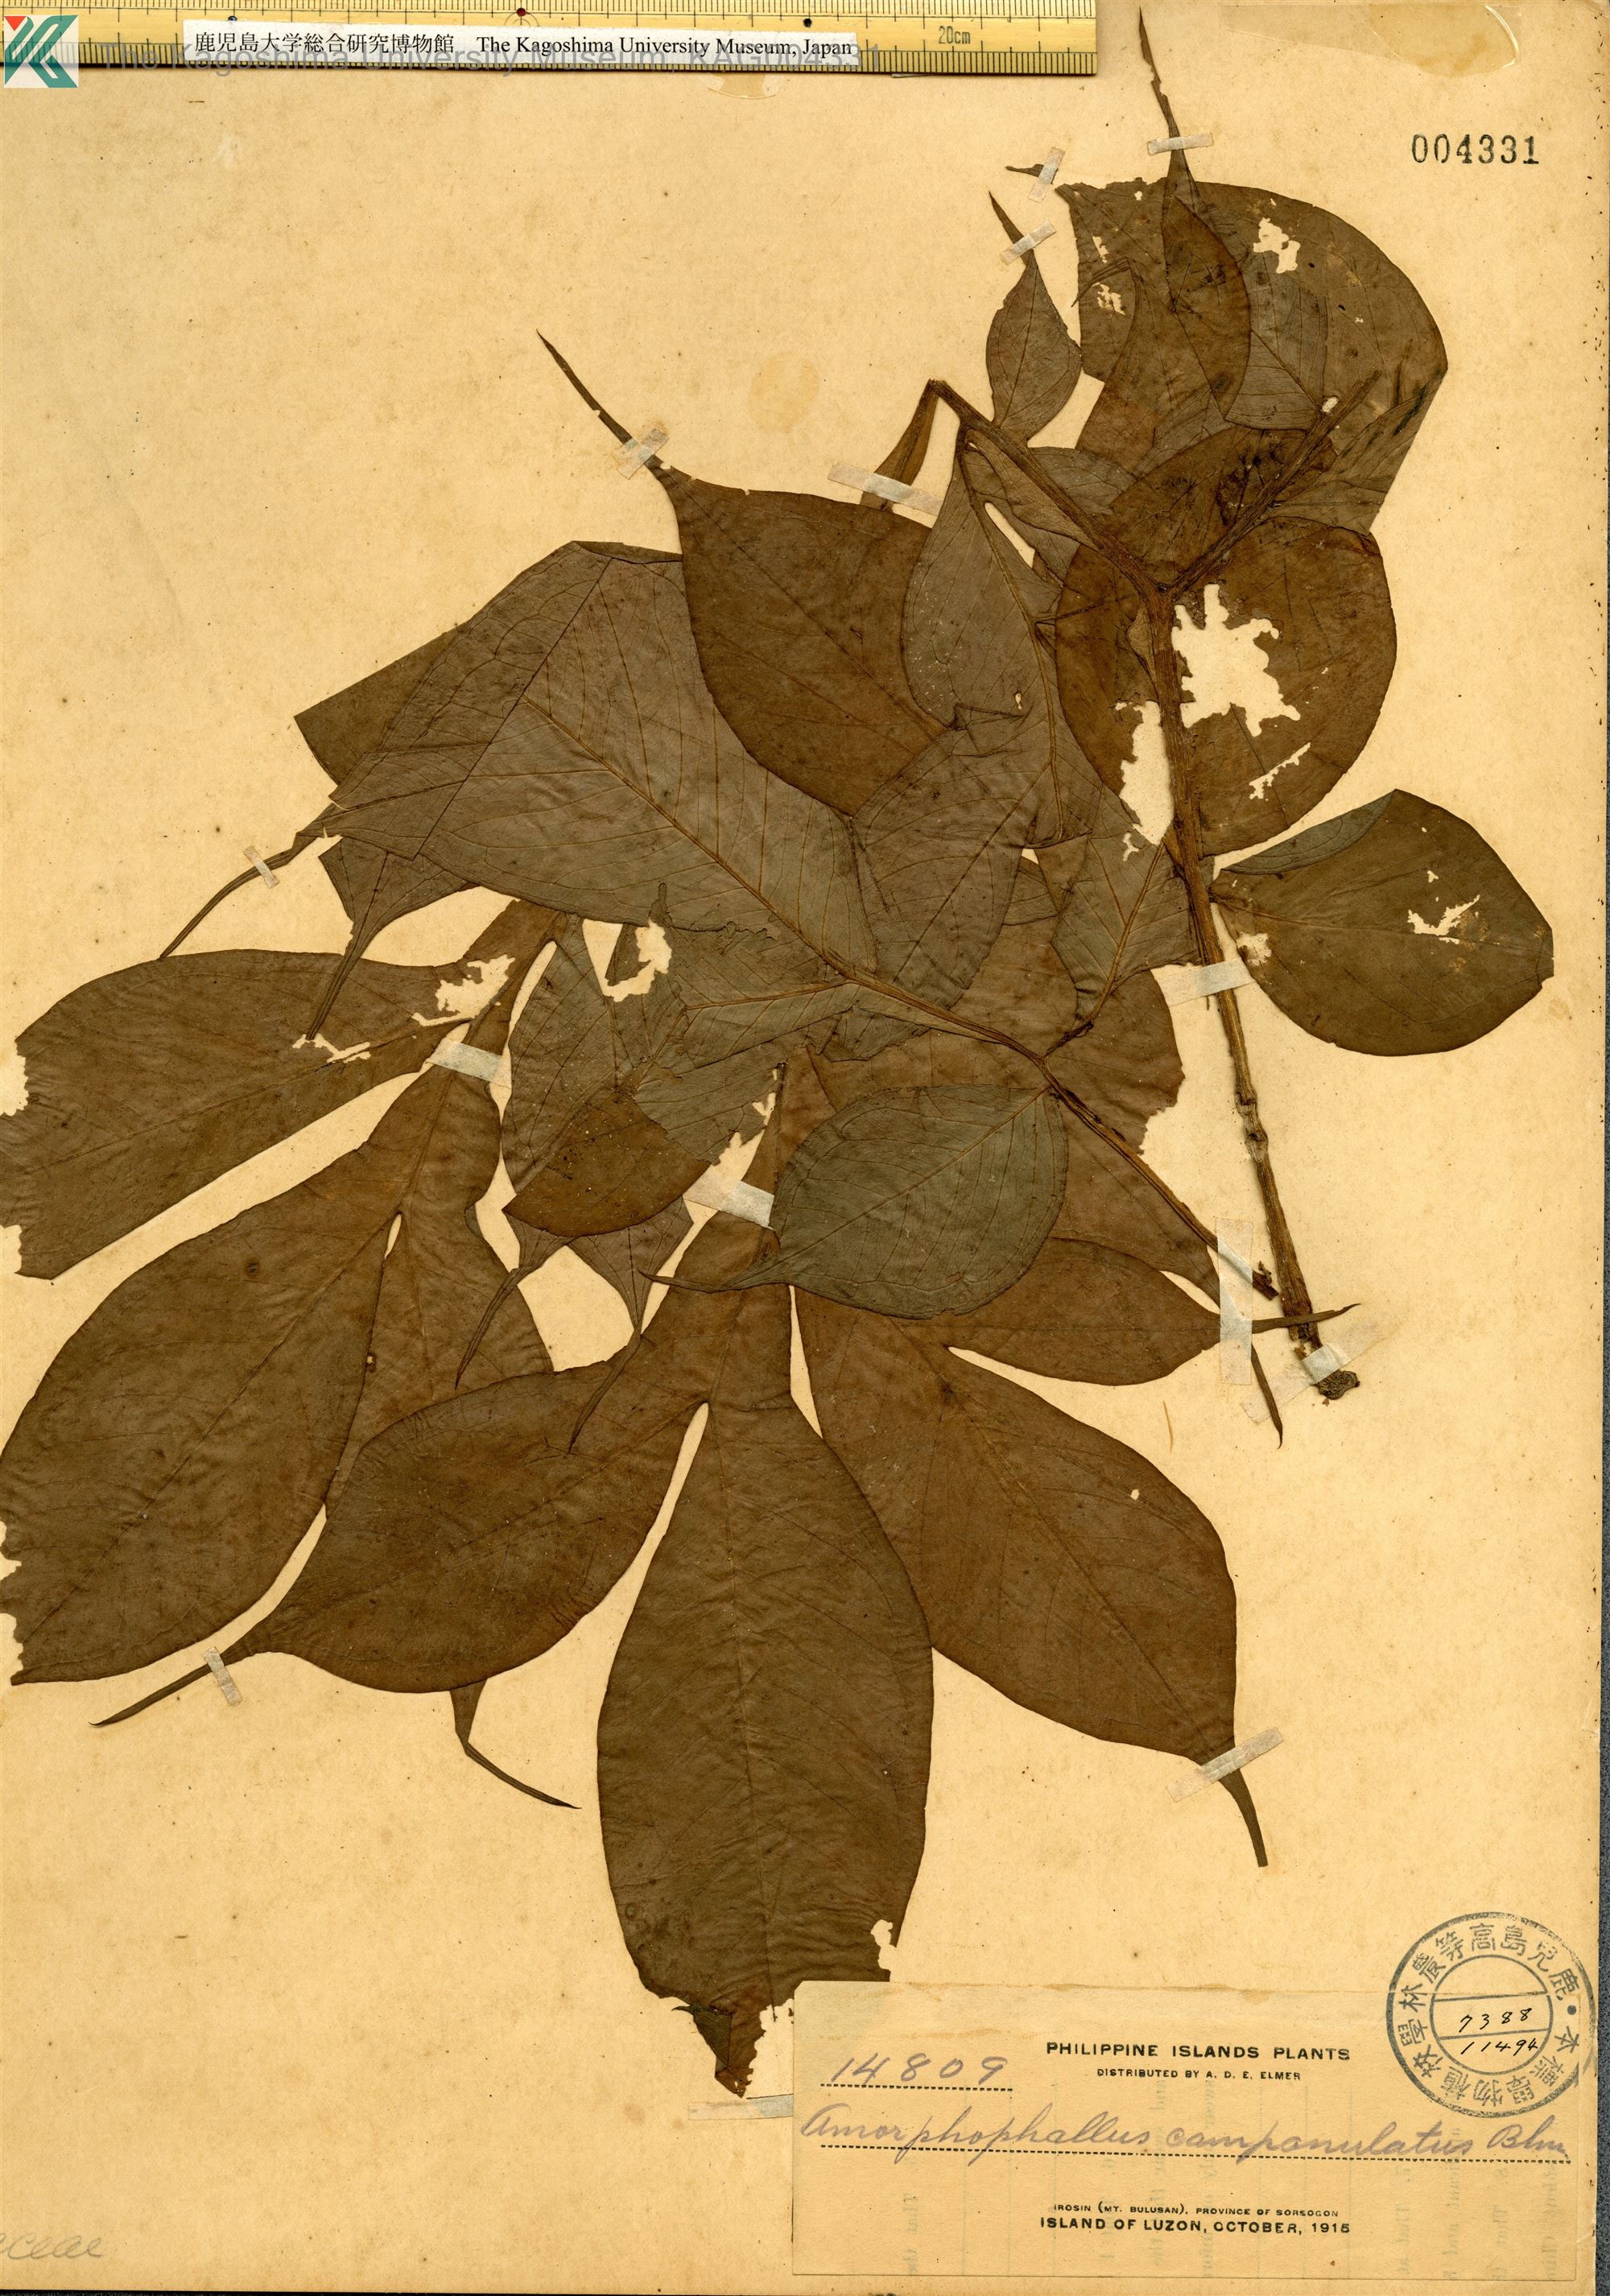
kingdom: Plantae
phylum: Tracheophyta
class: Liliopsida
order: Alismatales
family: Araceae
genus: Amorphophallus
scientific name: Amorphophallus paeoniifolius
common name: Telinga-potato
